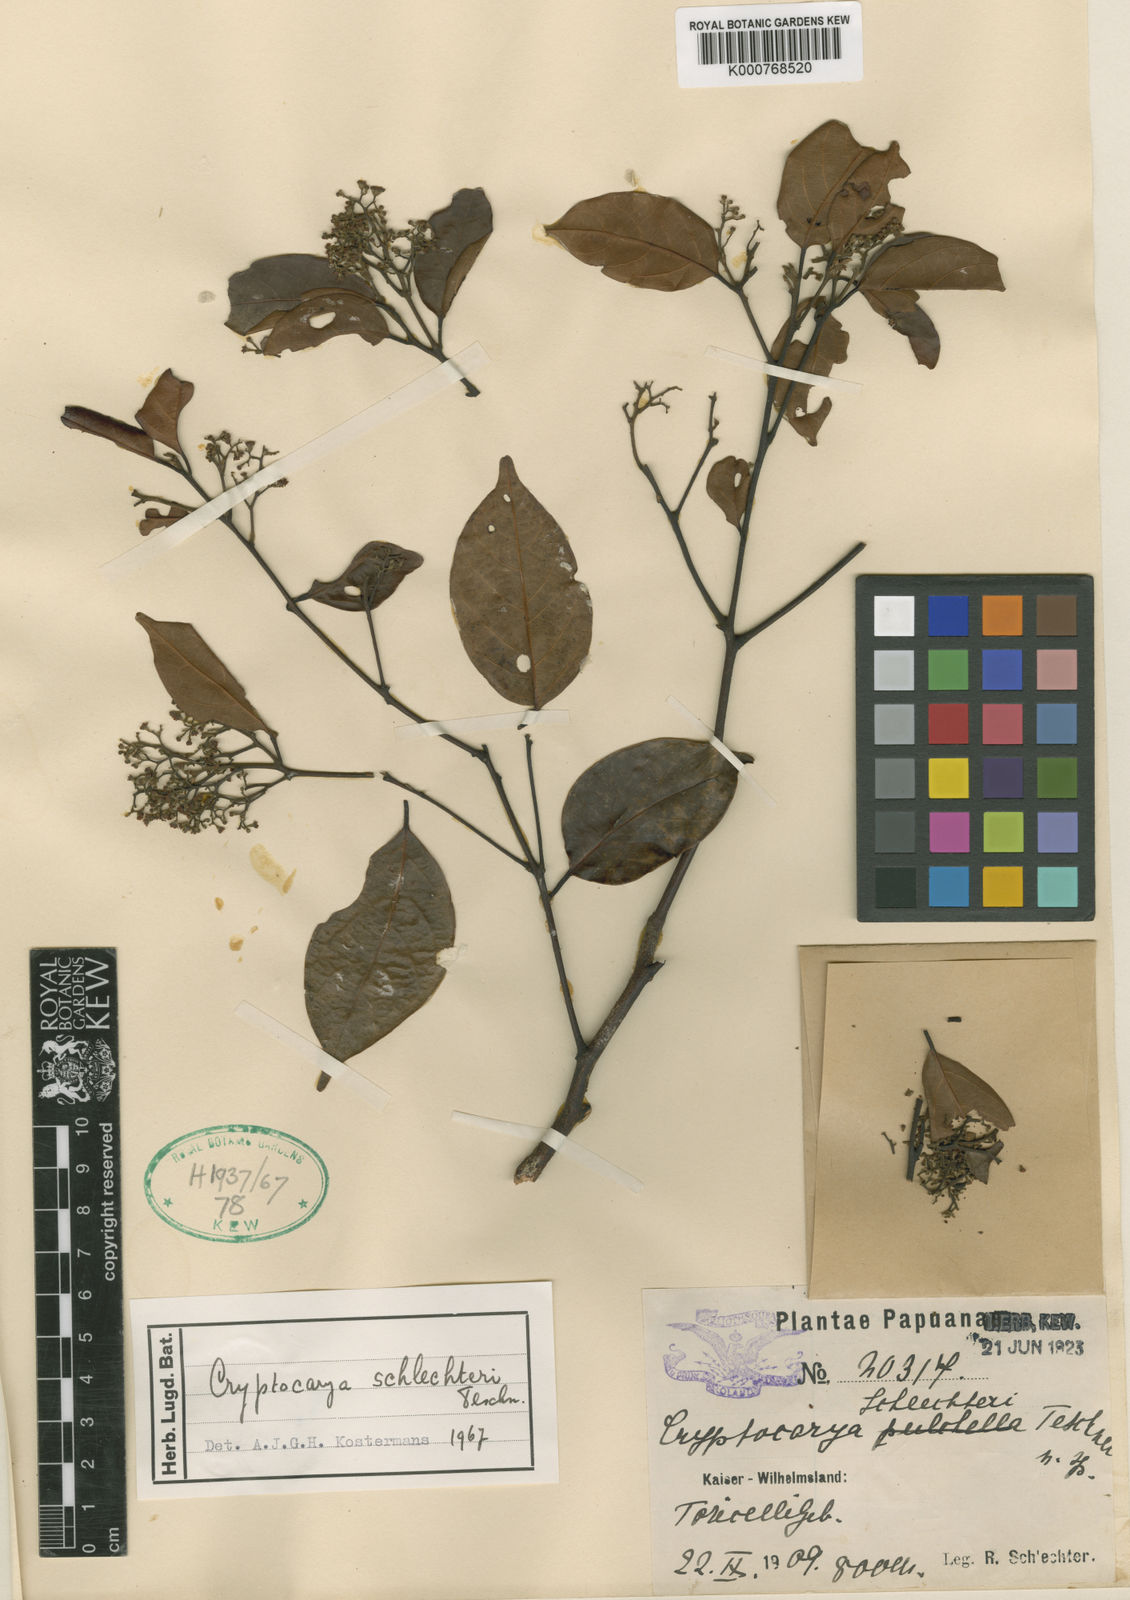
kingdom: Plantae
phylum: Tracheophyta
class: Magnoliopsida
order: Laurales
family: Lauraceae
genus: Cryptocarya
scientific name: Cryptocarya schlechteri
